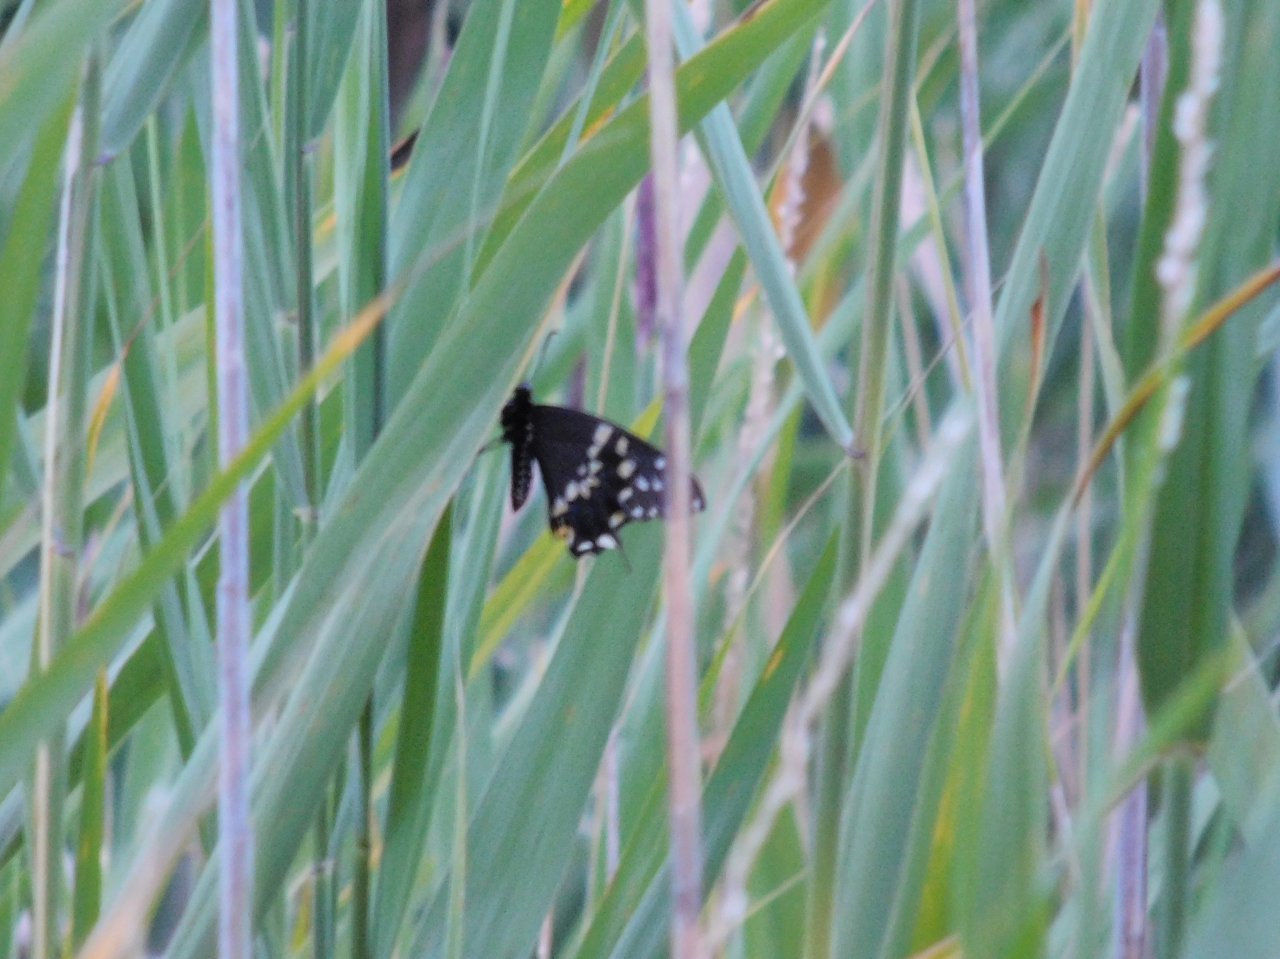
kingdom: Animalia
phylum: Arthropoda
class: Insecta
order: Lepidoptera
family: Papilionidae
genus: Papilio
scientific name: Papilio polyxenes
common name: Black Swallowtail
